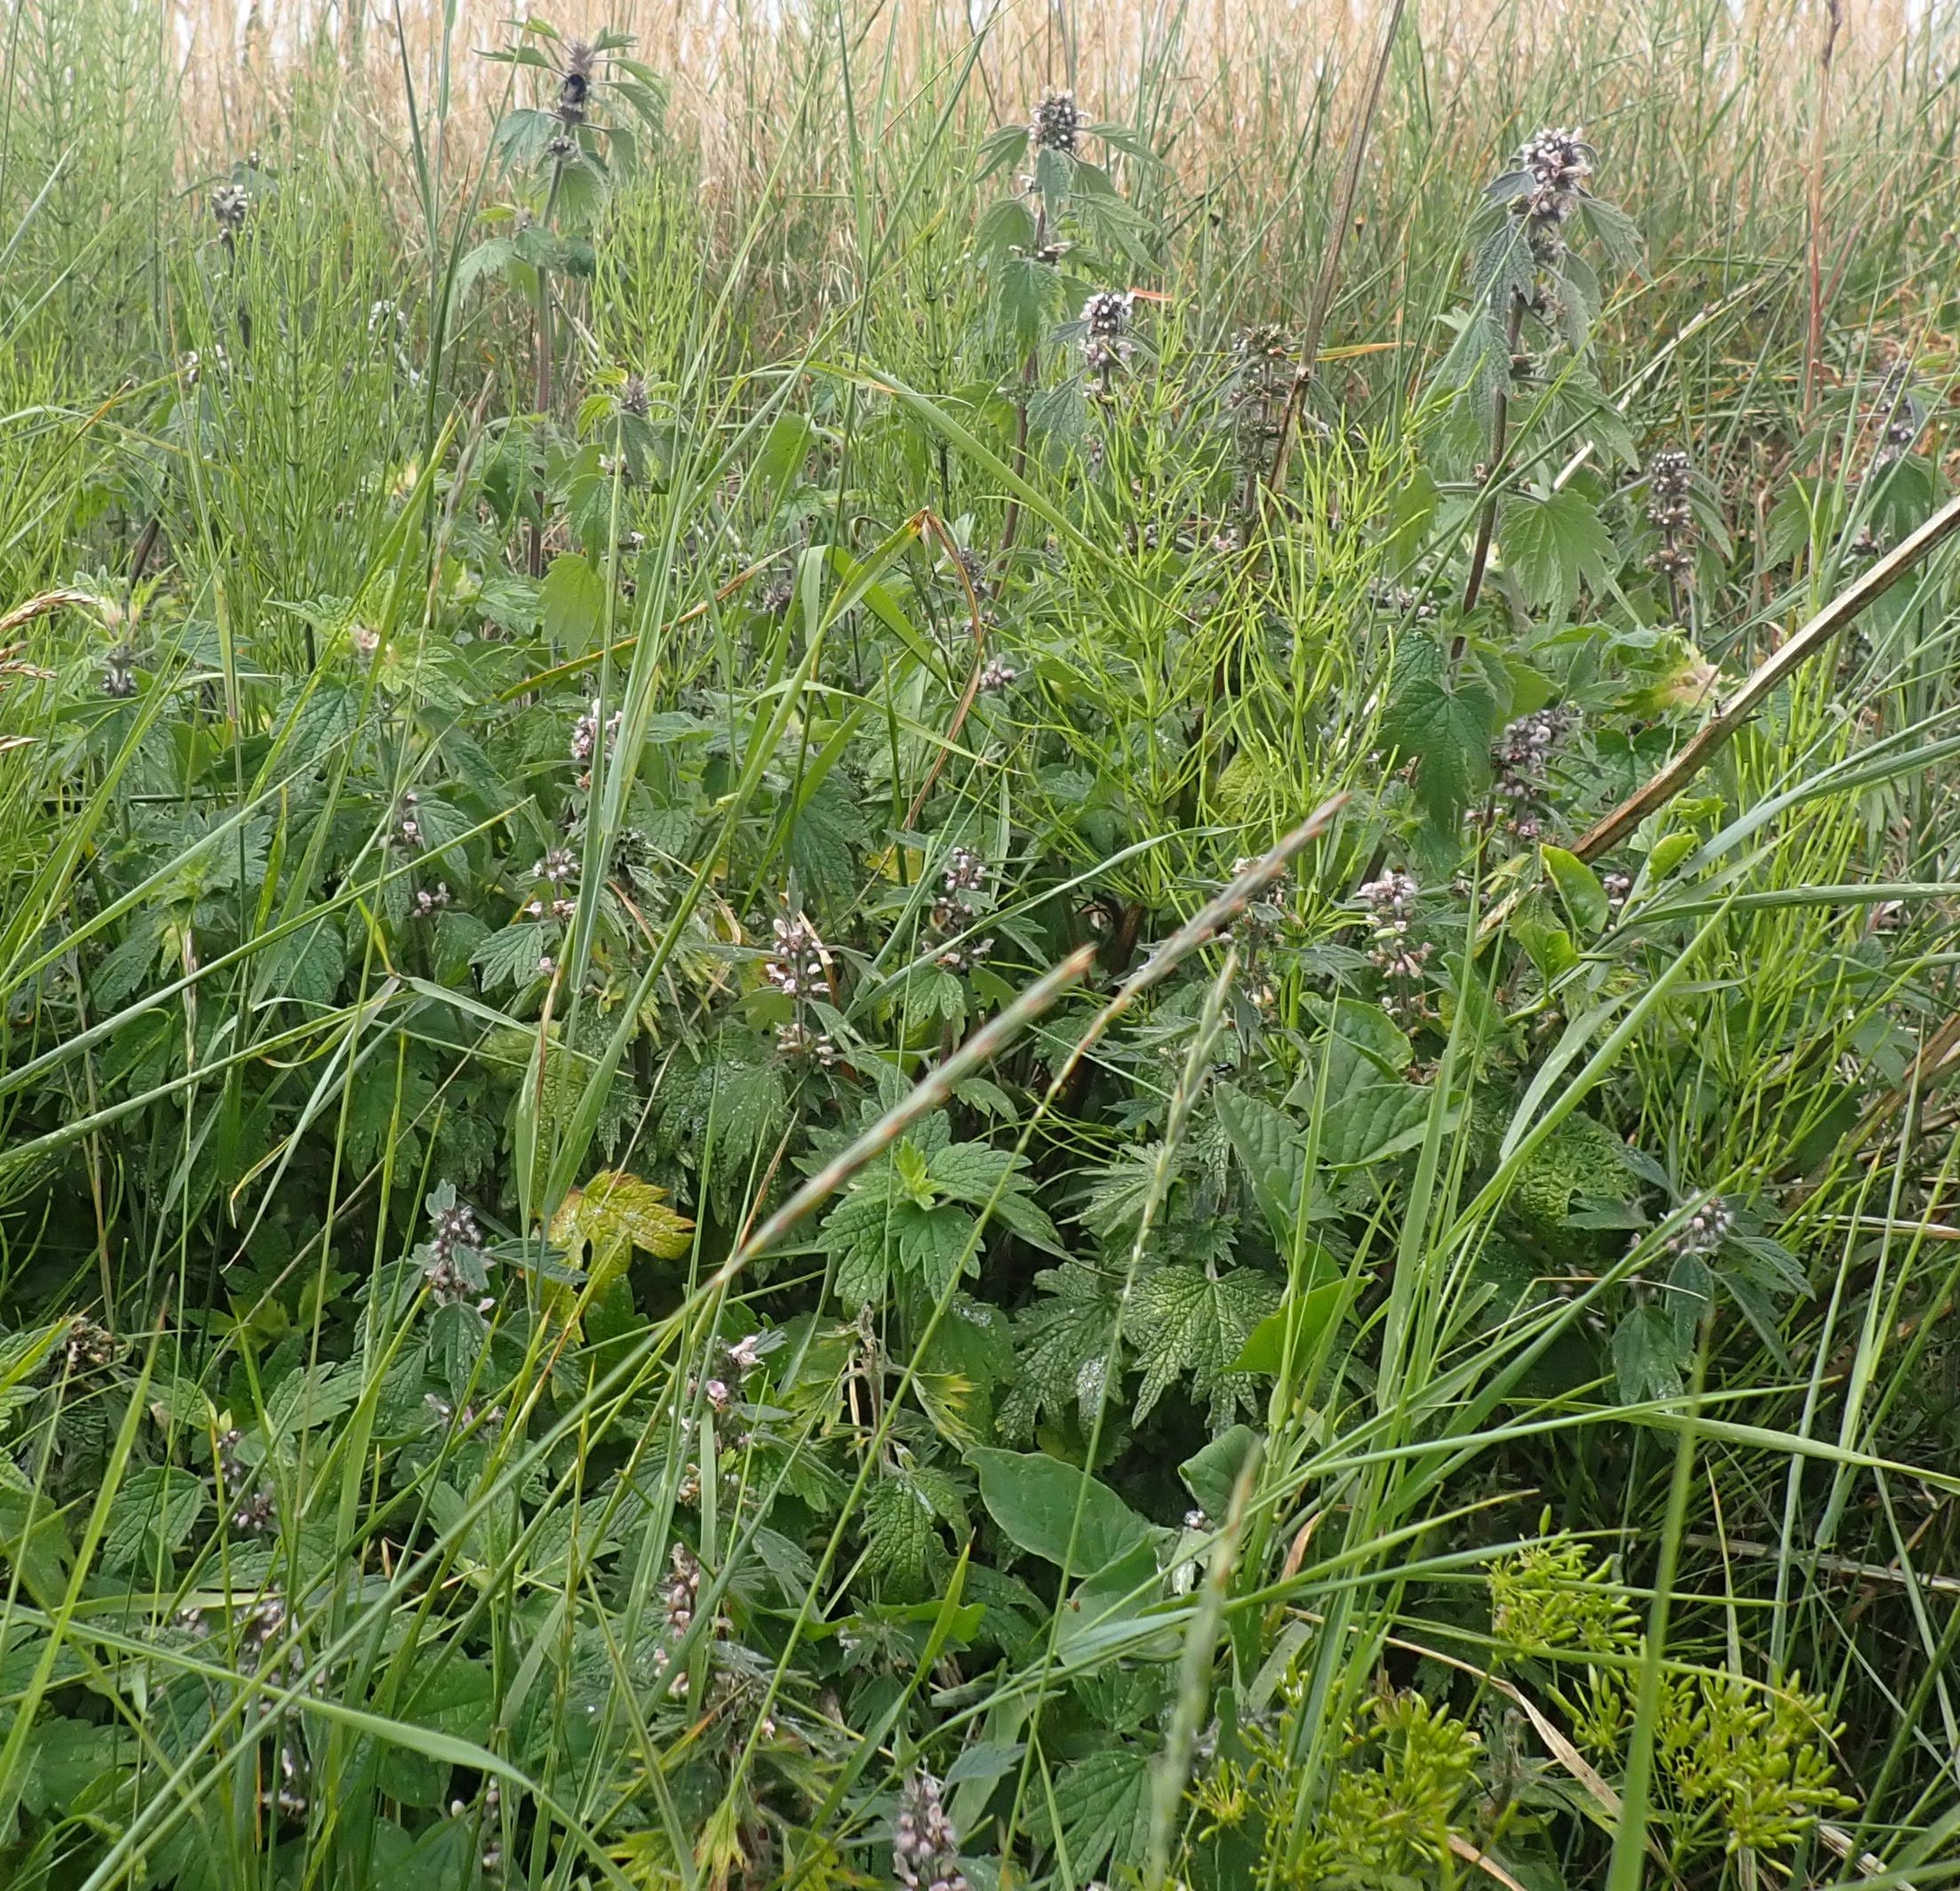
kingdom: Plantae
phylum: Tracheophyta
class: Magnoliopsida
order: Lamiales
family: Lamiaceae
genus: Leonurus
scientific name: Leonurus cardiaca
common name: Hjertespand
